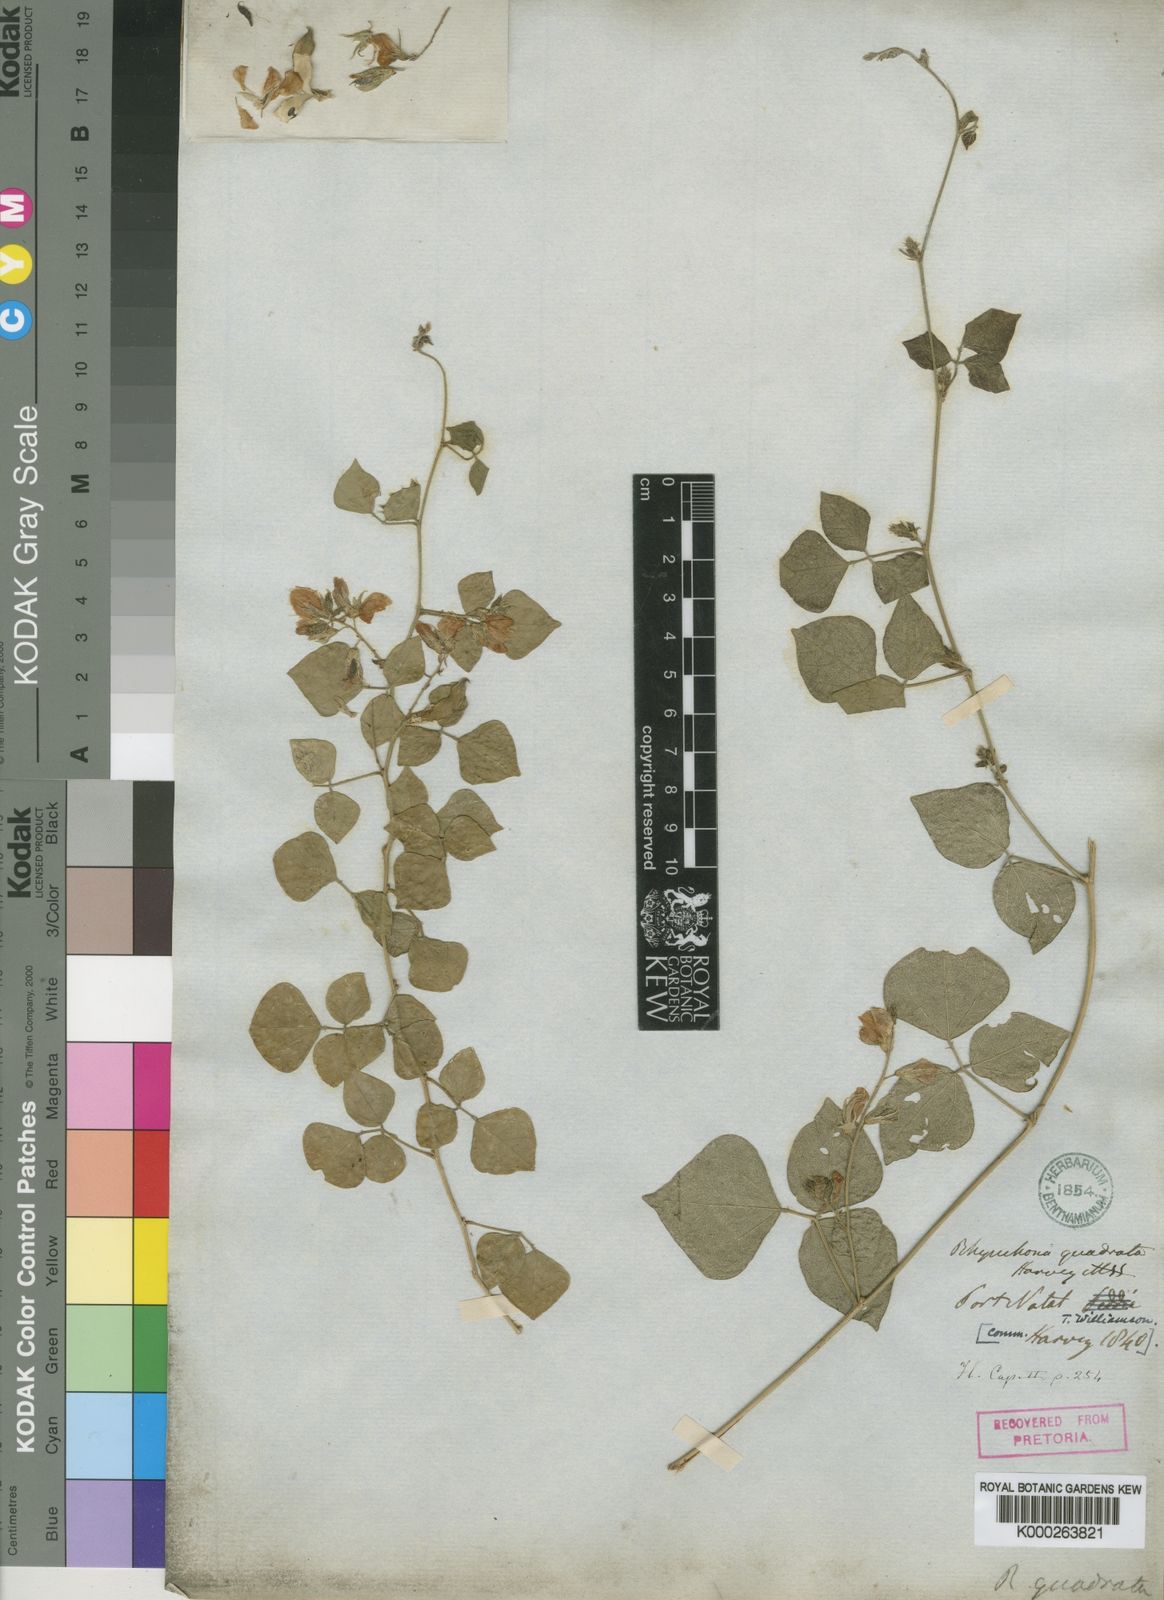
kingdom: Plantae
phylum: Tracheophyta
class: Magnoliopsida
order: Fabales
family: Fabaceae
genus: Rhynchosia
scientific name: Rhynchosia quadrata
